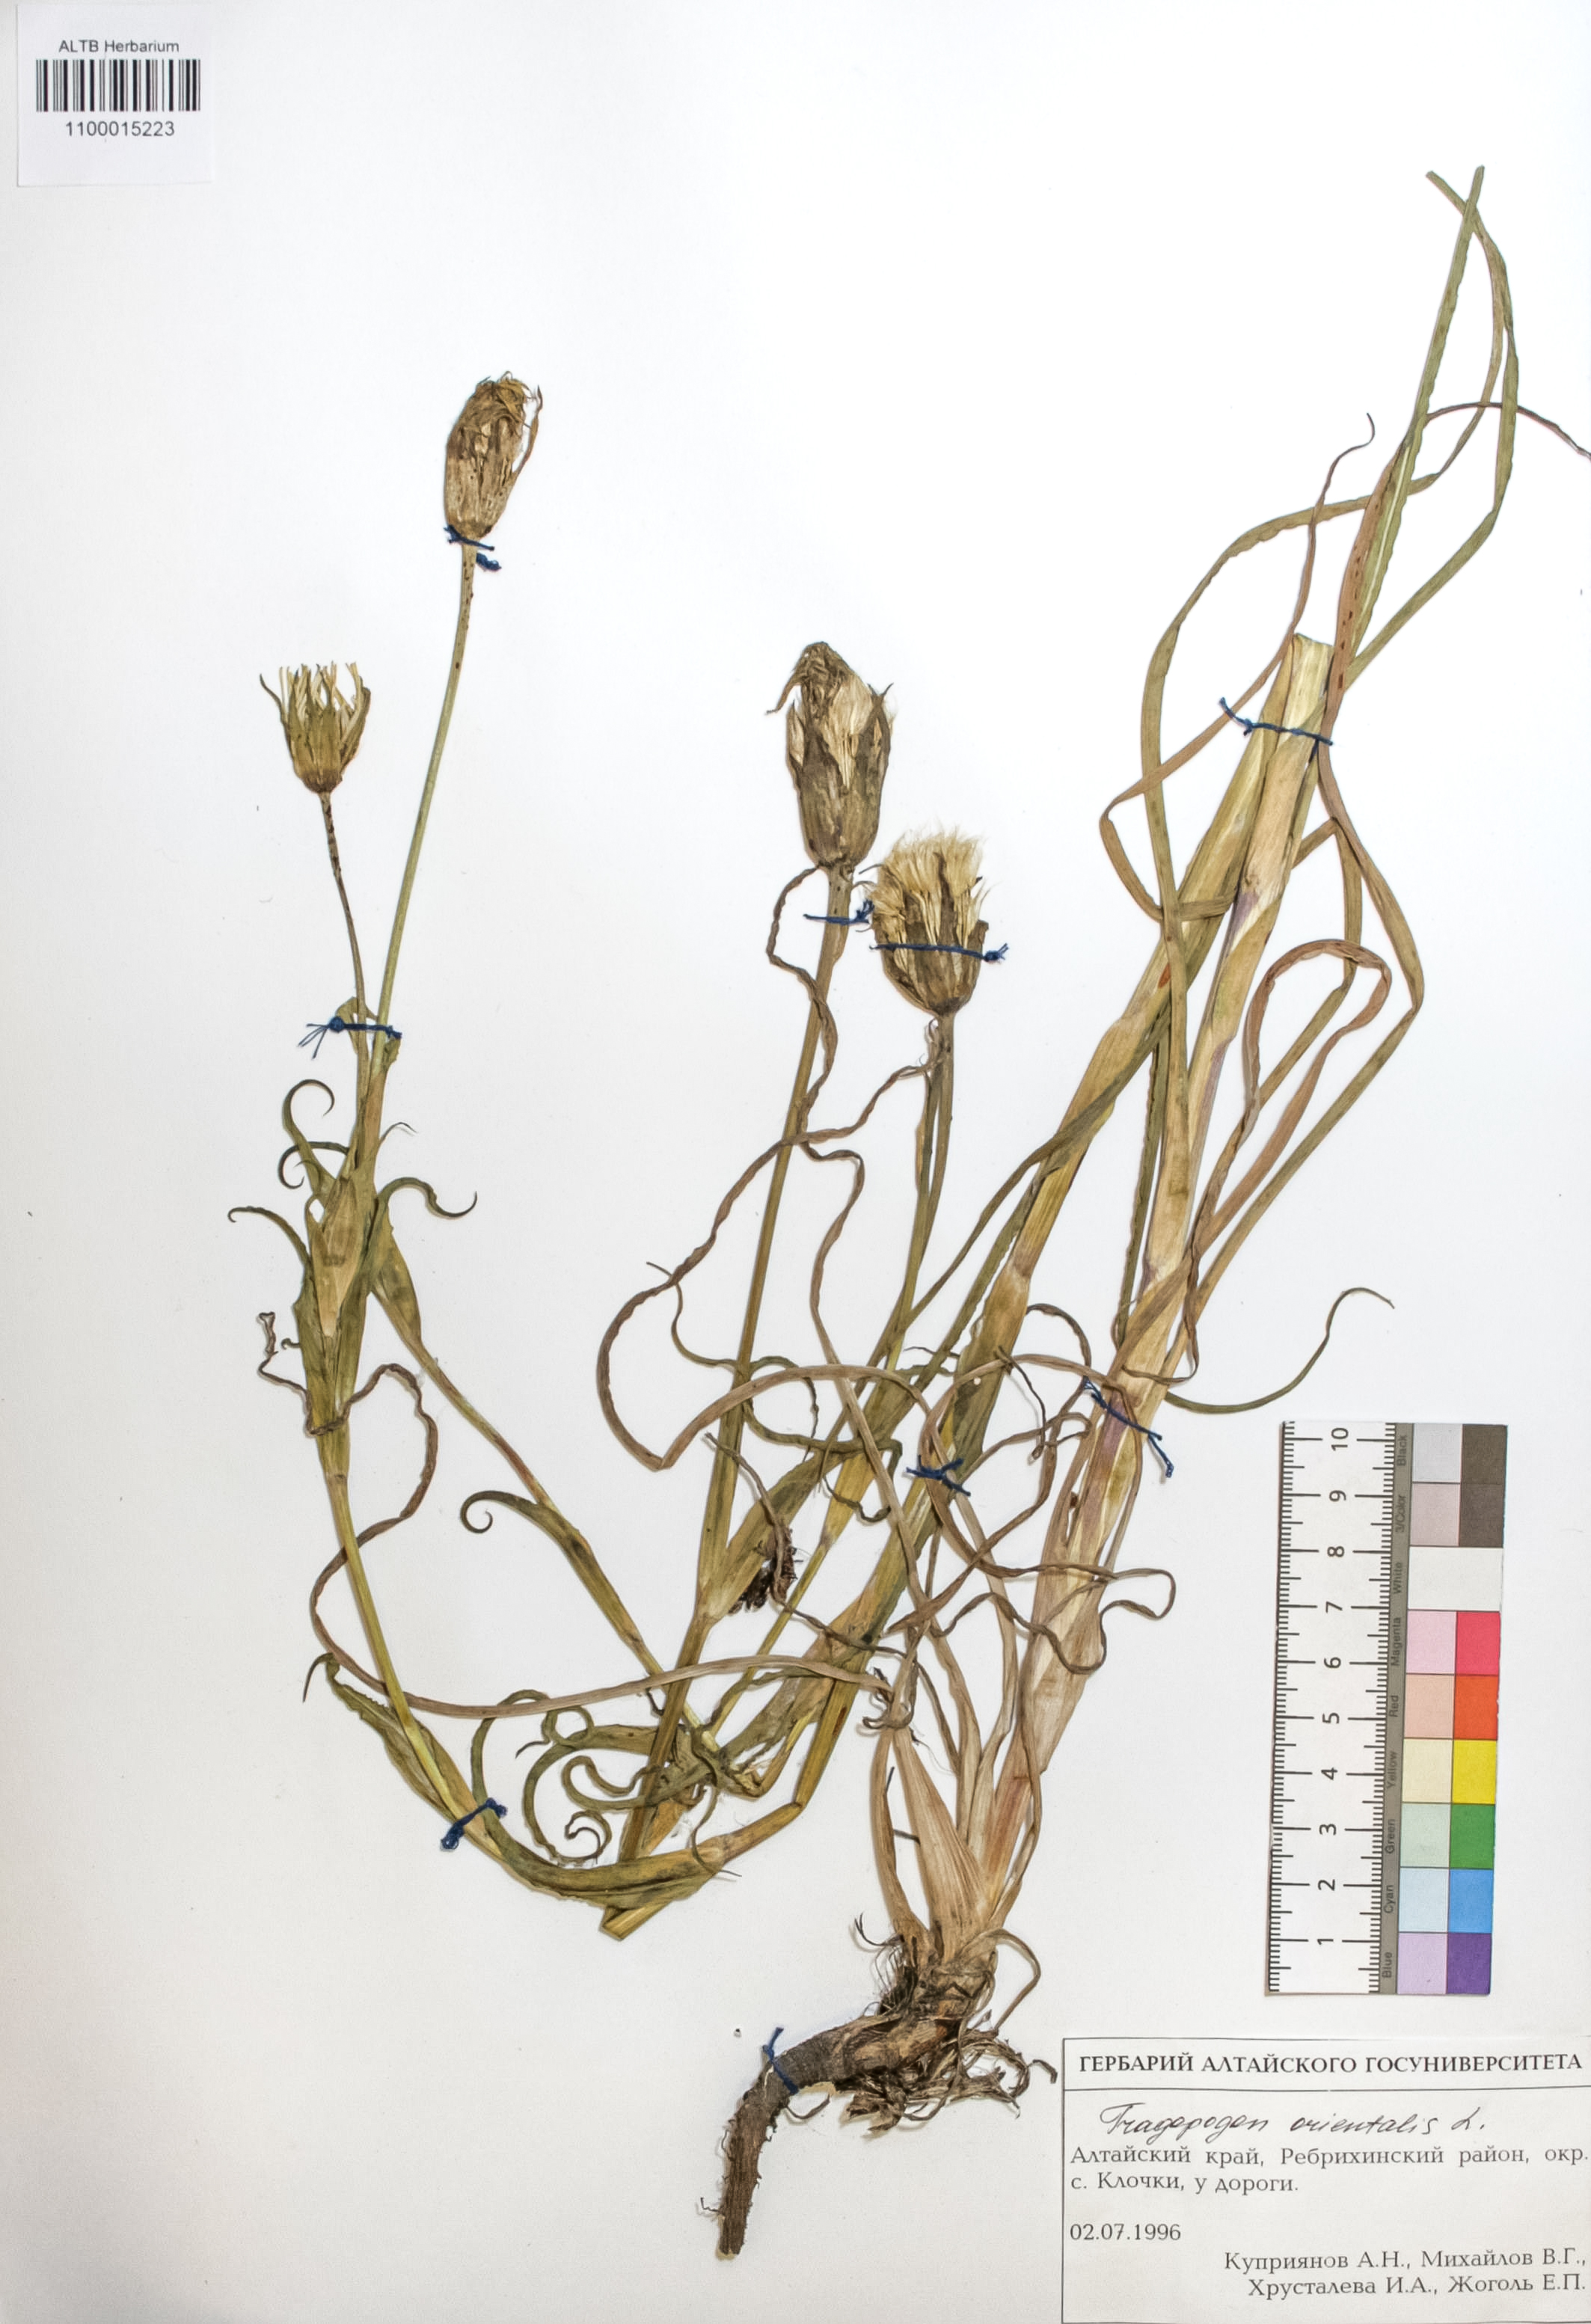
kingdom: Plantae
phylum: Tracheophyta
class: Magnoliopsida
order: Asterales
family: Asteraceae
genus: Tragopogon
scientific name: Tragopogon orientalis
